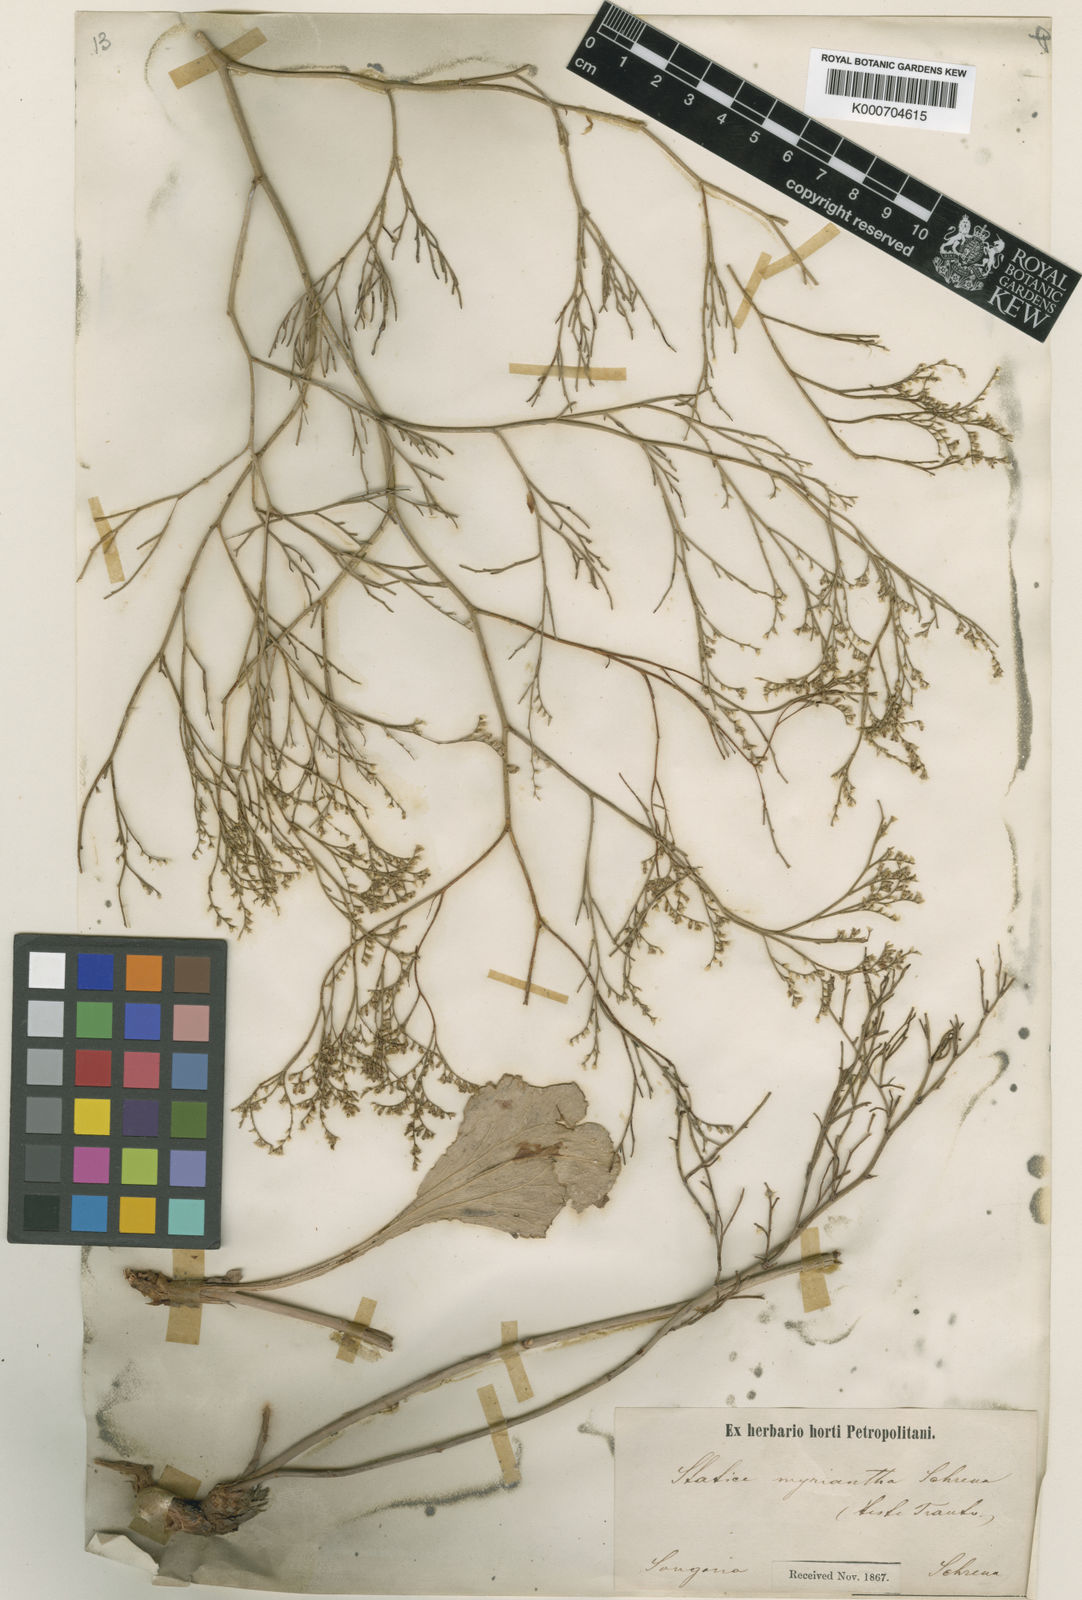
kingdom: Plantae
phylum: Tracheophyta
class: Magnoliopsida
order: Caryophyllales
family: Plumbaginaceae
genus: Limonium
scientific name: Limonium myrianthum
